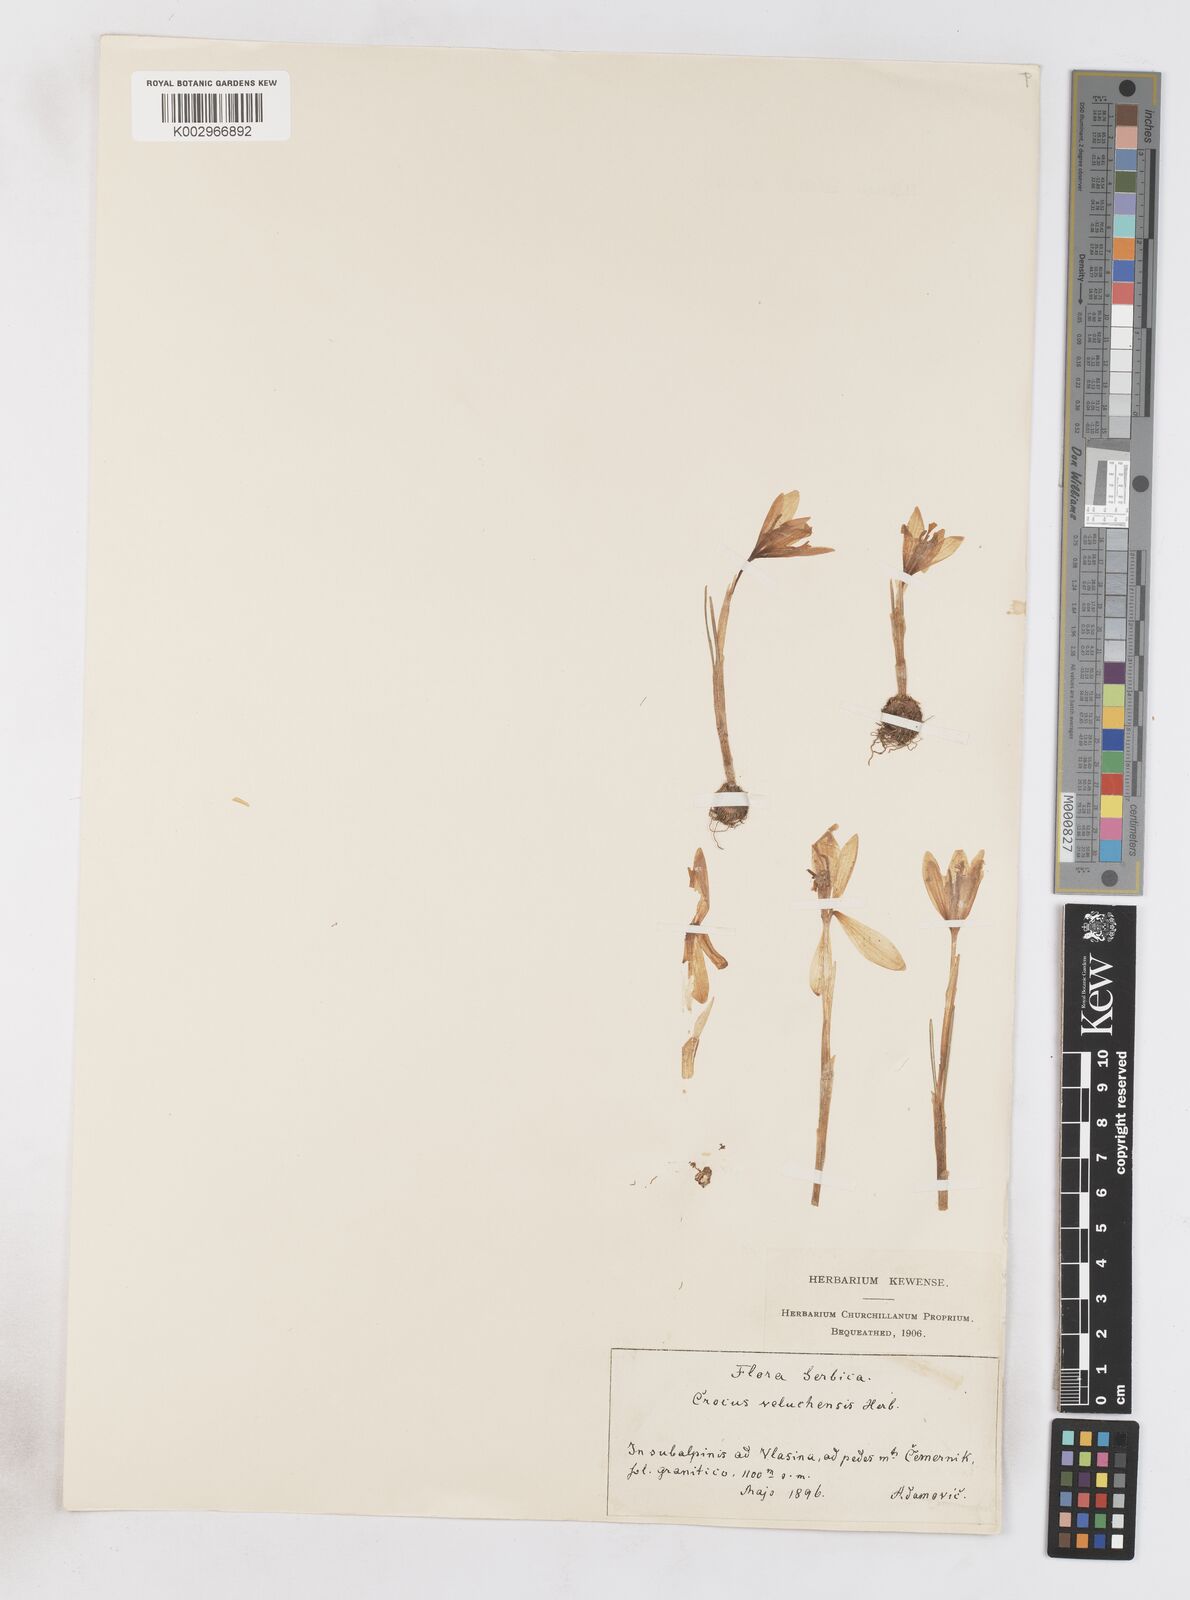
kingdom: Plantae
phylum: Tracheophyta
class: Liliopsida
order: Asparagales
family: Iridaceae
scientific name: Iridaceae
